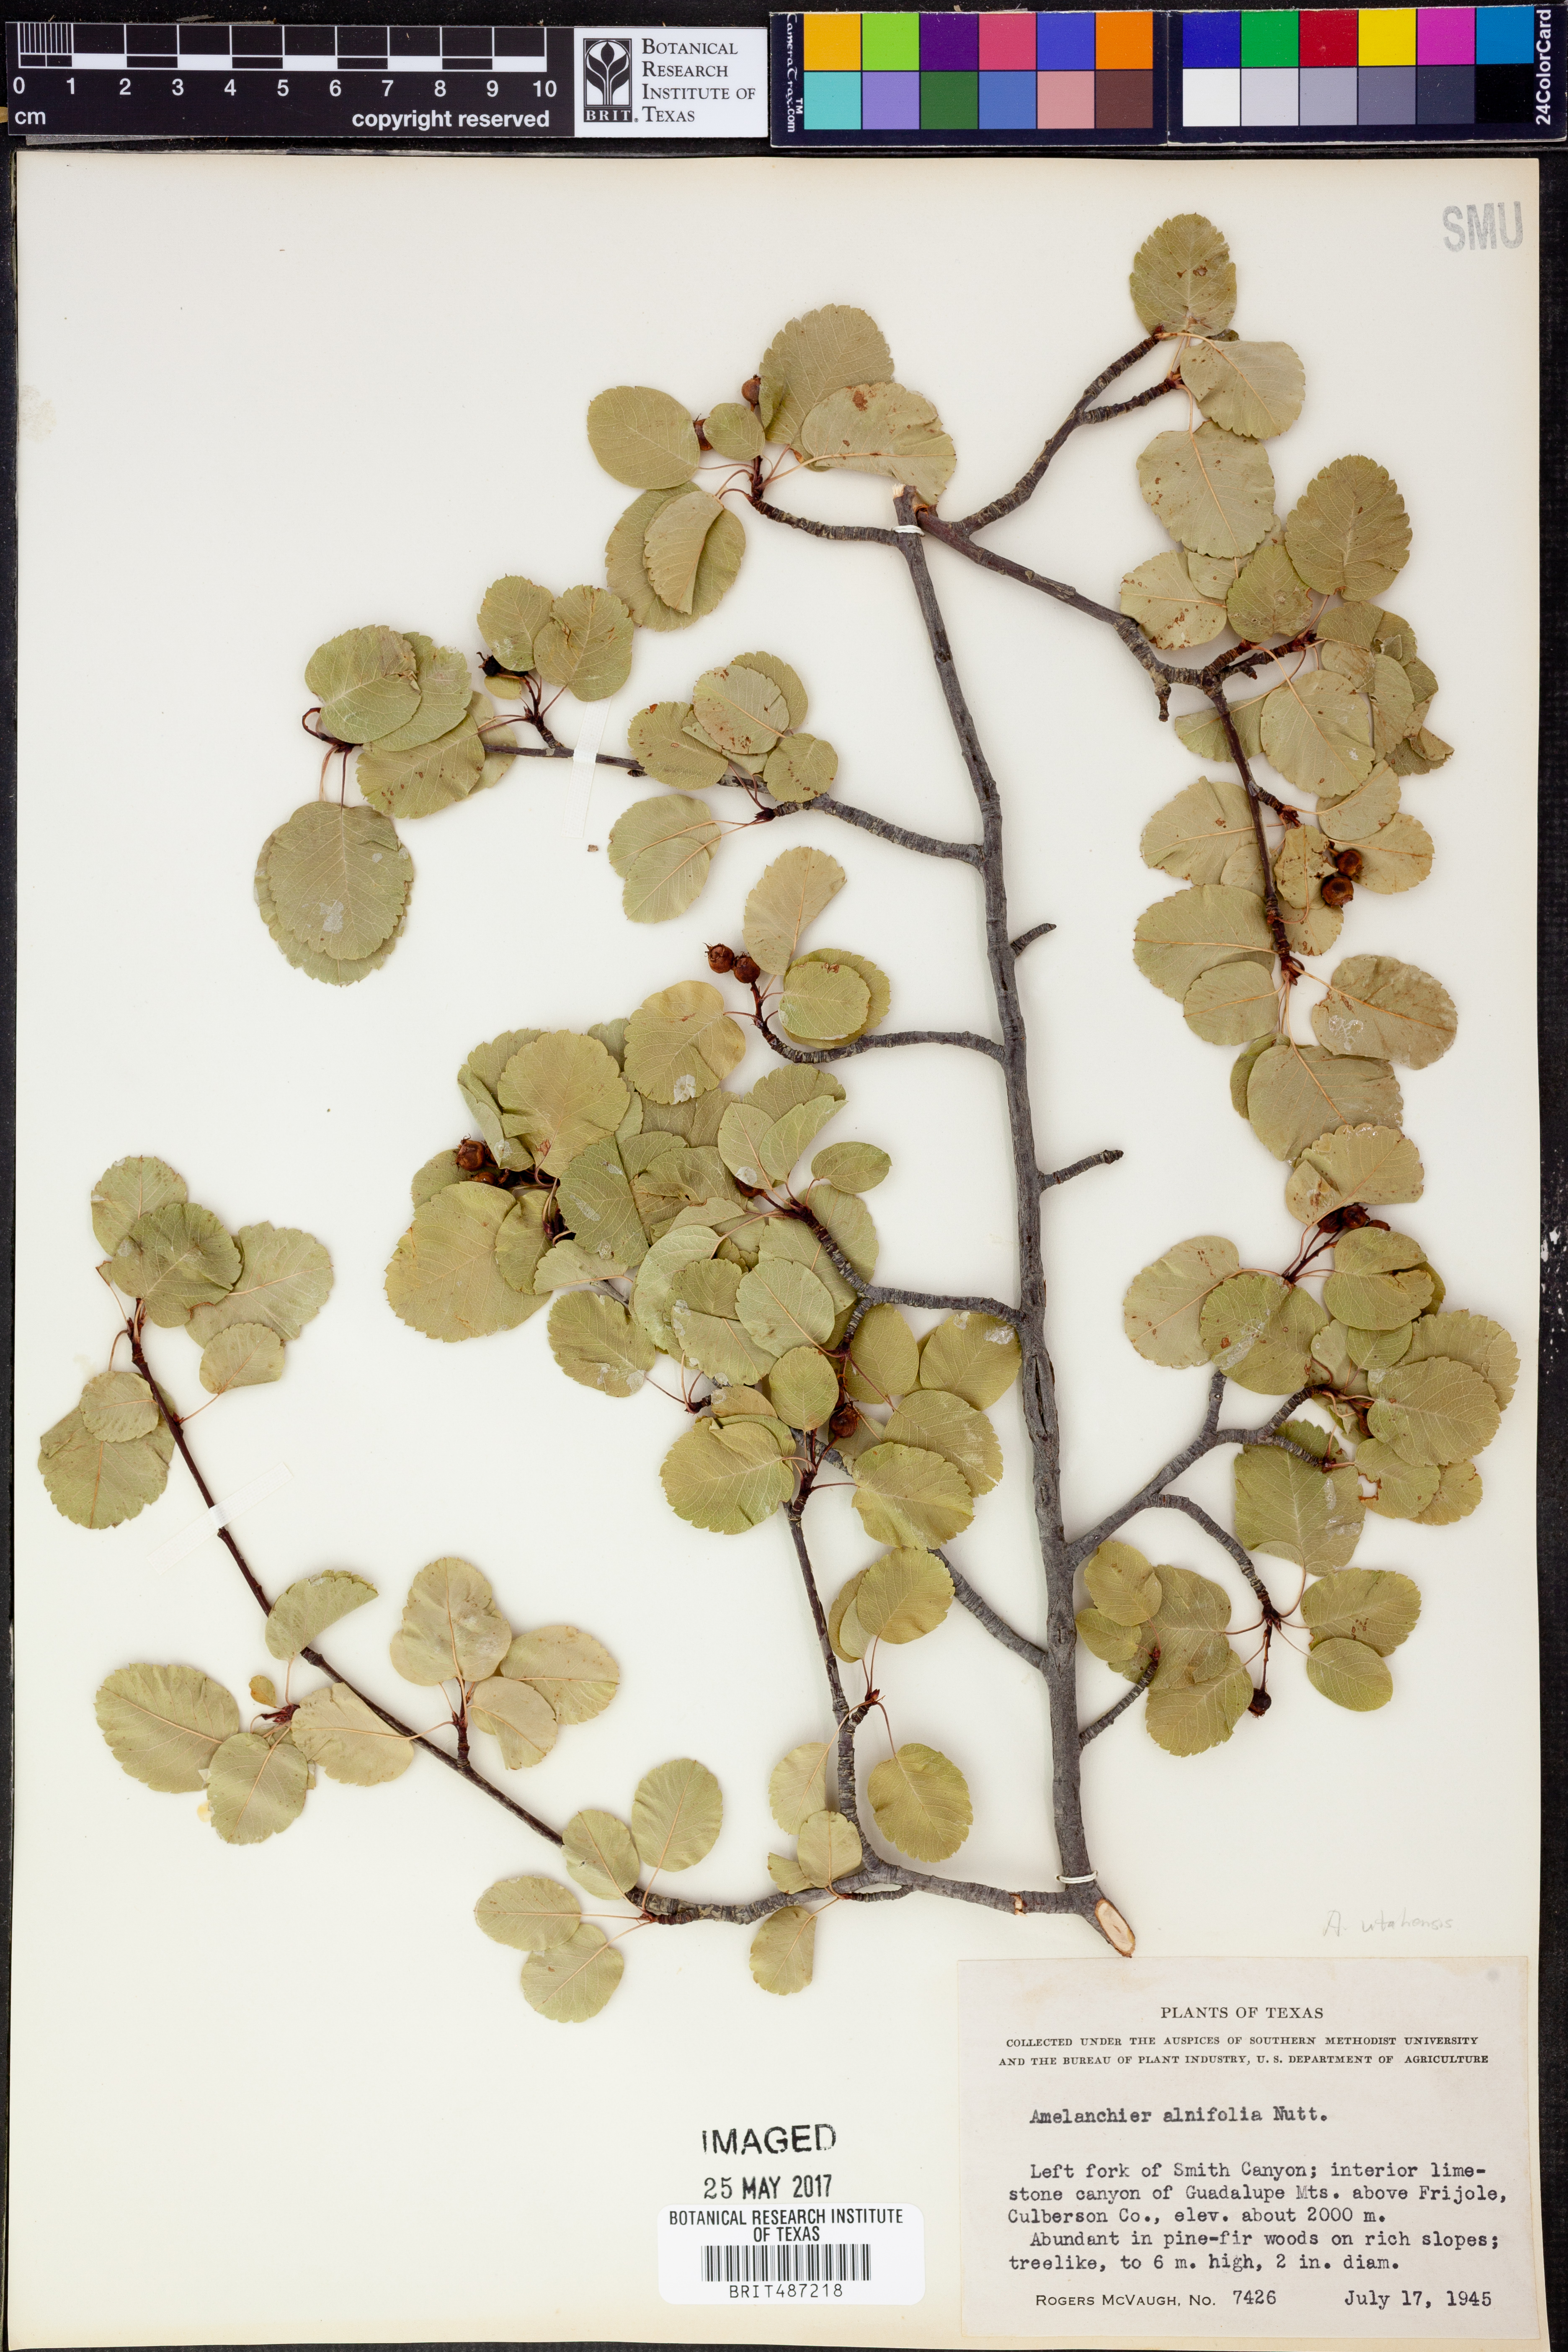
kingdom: Plantae
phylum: Tracheophyta
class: Magnoliopsida
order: Rosales
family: Rosaceae
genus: Amelanchier
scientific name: Amelanchier alnifolia
